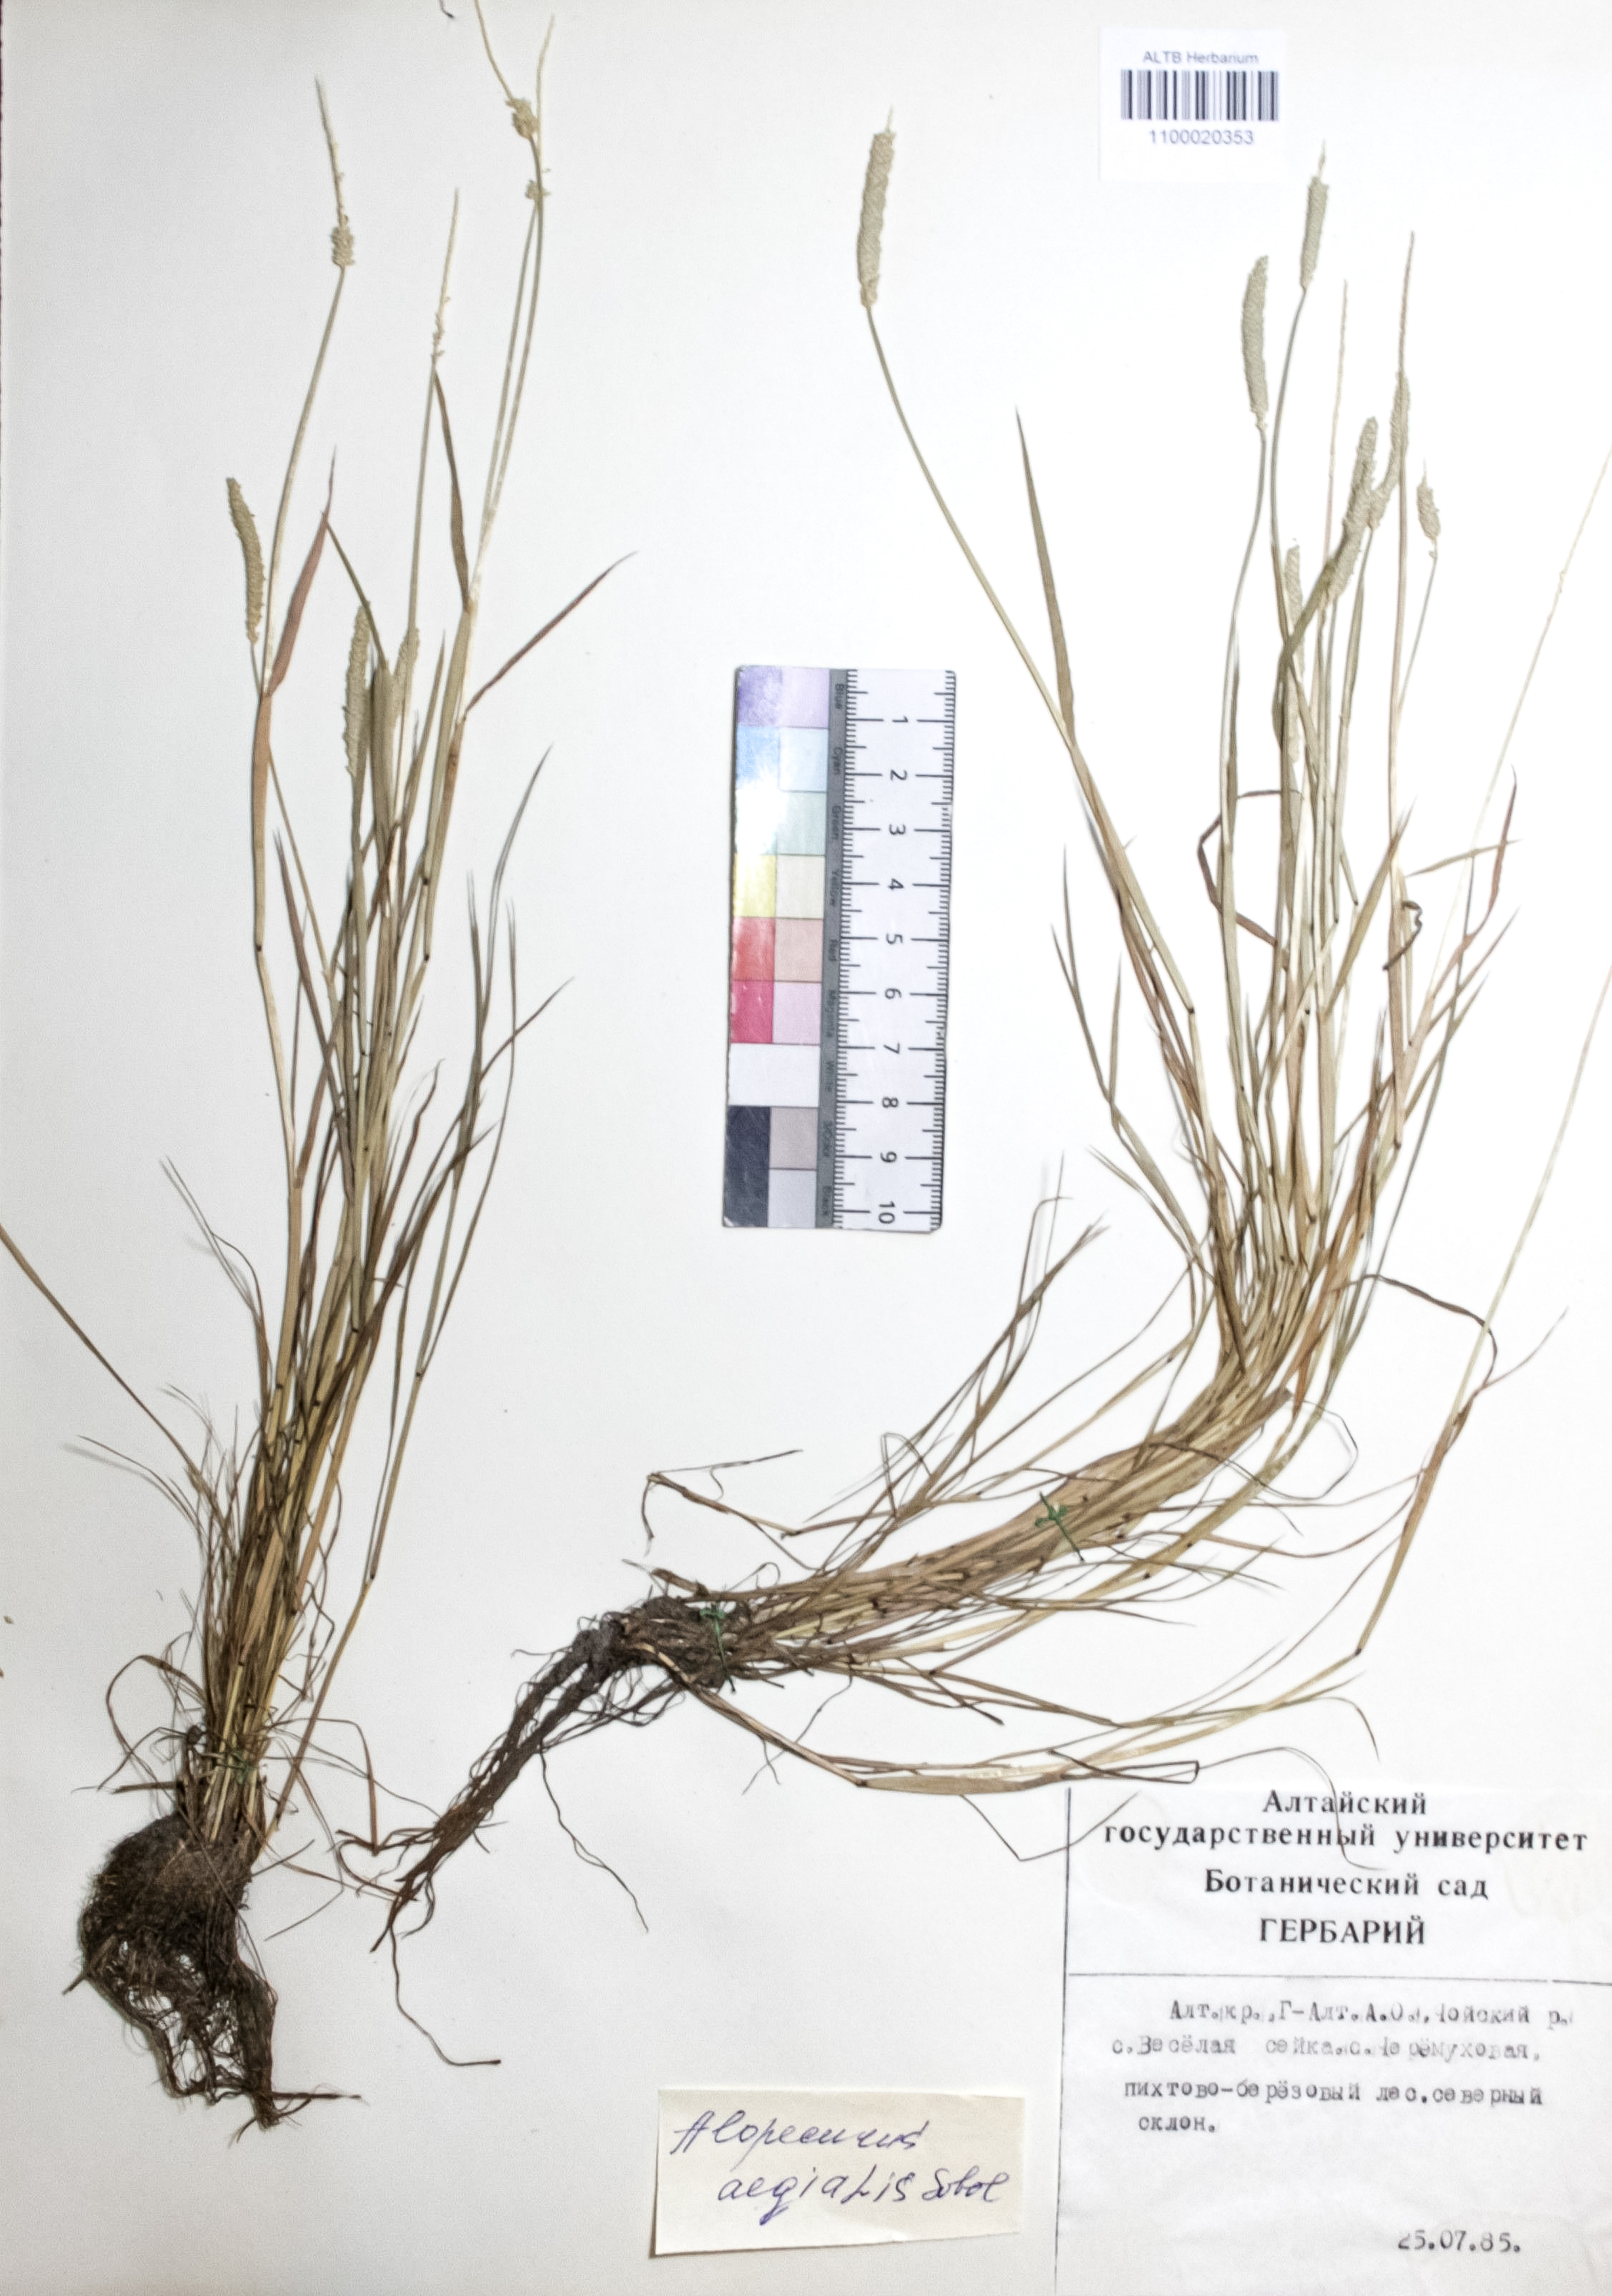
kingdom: Plantae
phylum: Tracheophyta
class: Liliopsida
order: Poales
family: Poaceae
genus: Alopecurus
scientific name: Alopecurus aequalis
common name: Orange foxtail
